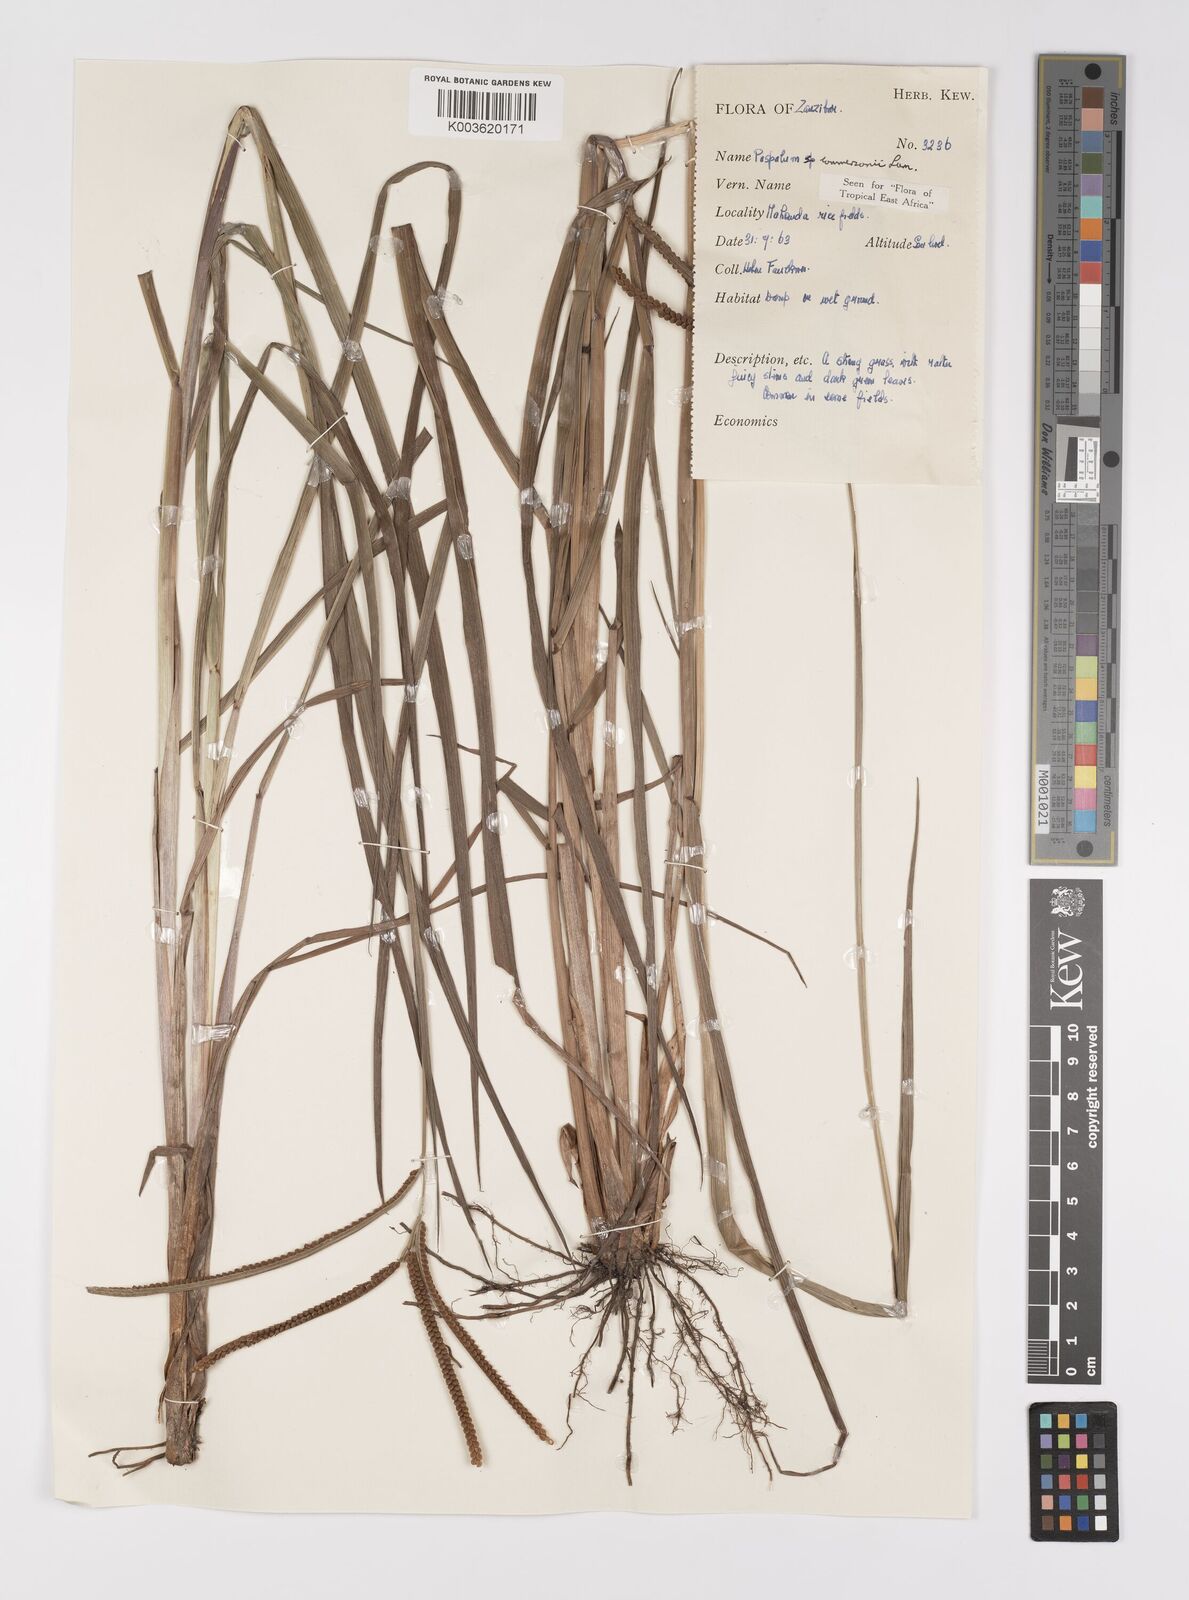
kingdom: Plantae
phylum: Tracheophyta
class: Liliopsida
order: Poales
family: Poaceae
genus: Paspalum
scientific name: Paspalum scrobiculatum
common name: Kodo millet
